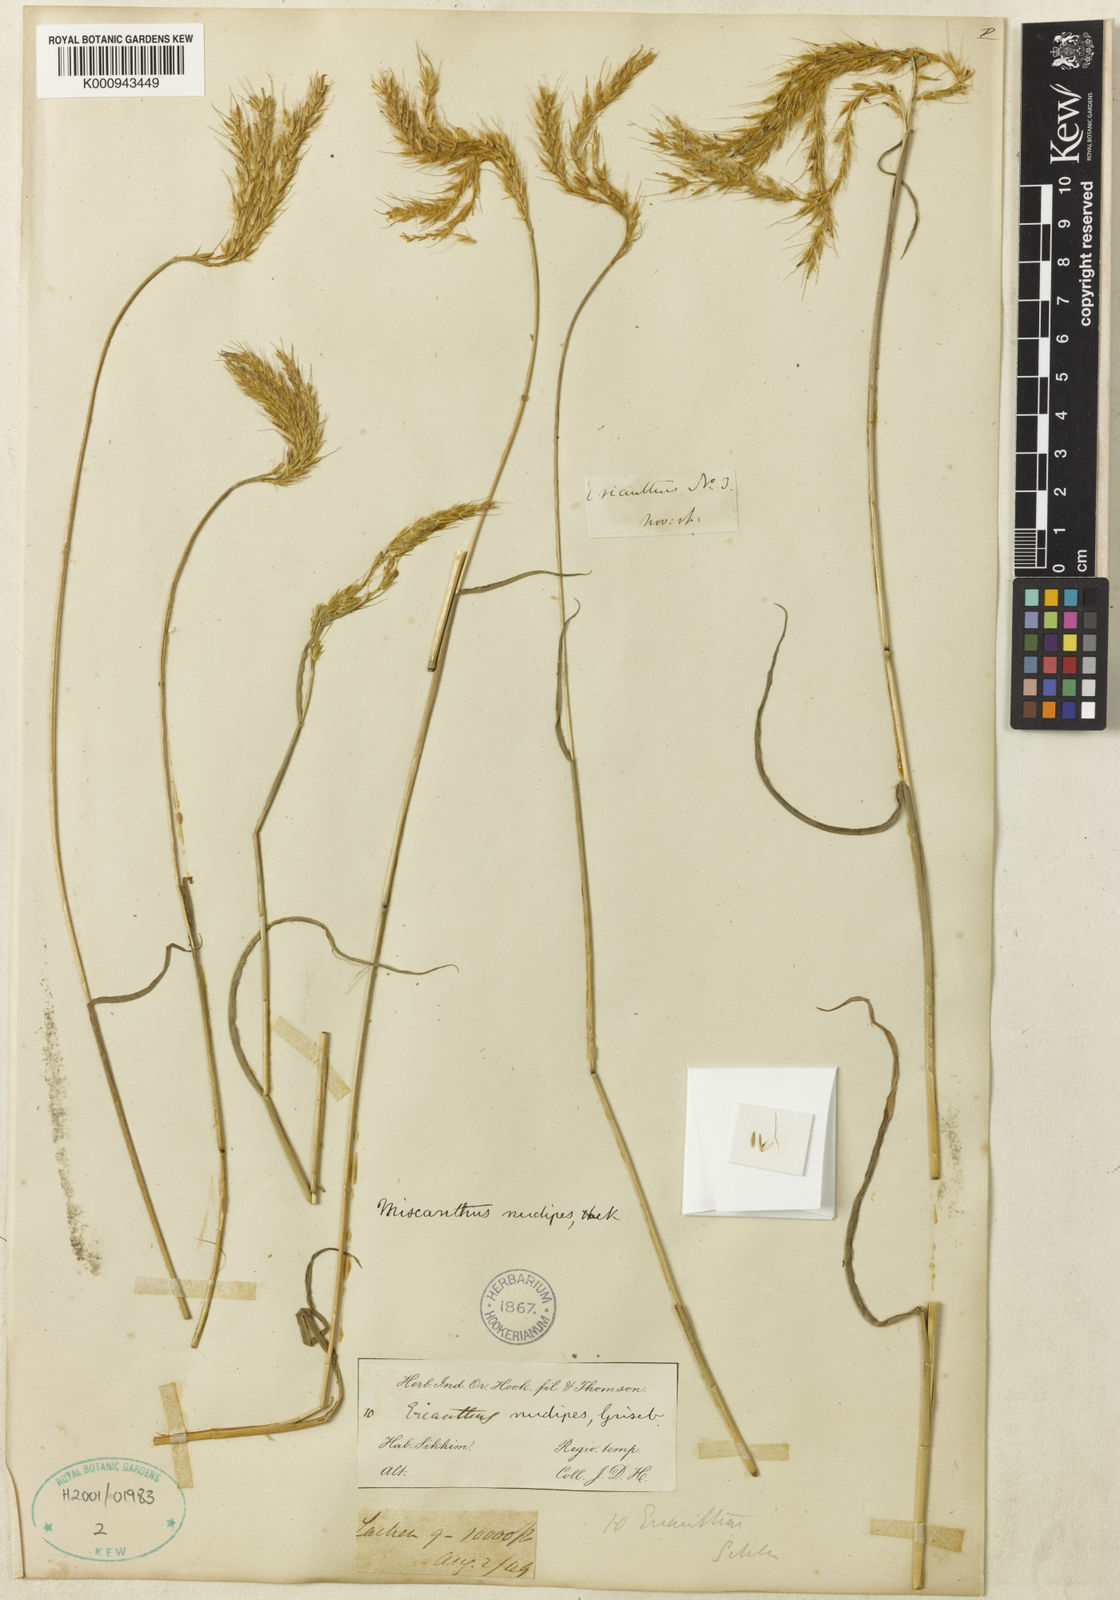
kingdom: Plantae
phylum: Tracheophyta
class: Liliopsida
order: Poales
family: Poaceae
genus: Miscanthus
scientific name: Miscanthus nudipes
